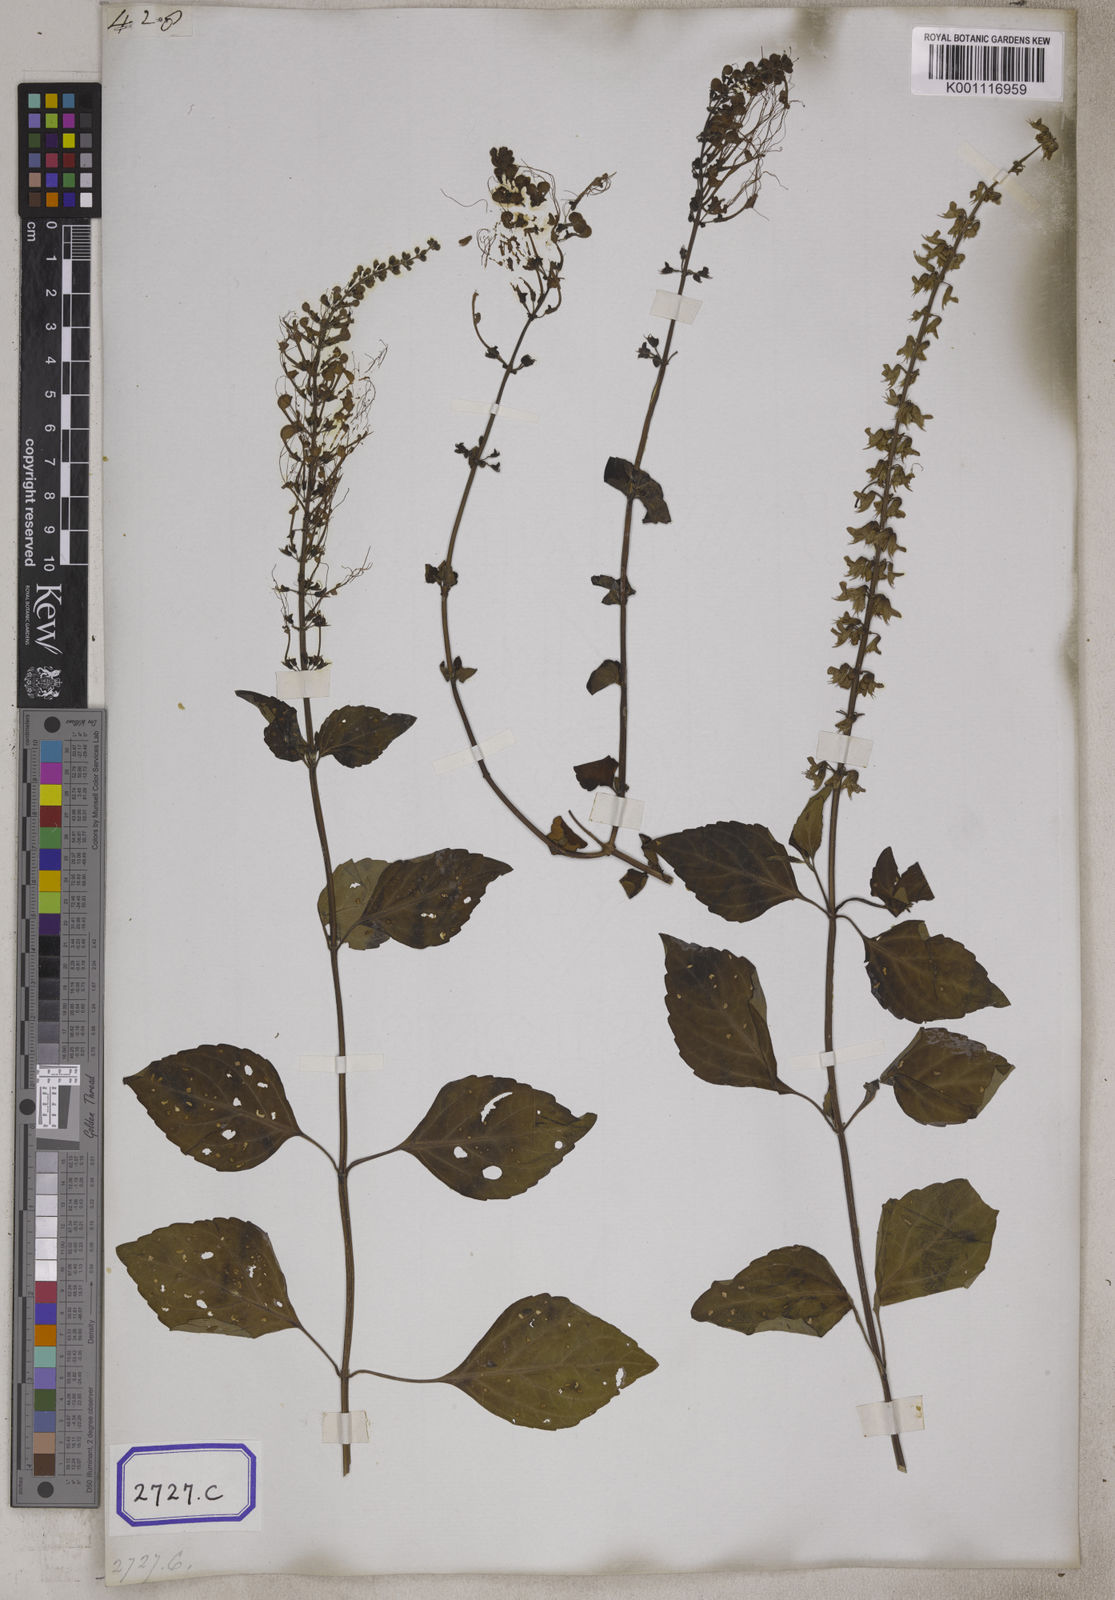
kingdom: Plantae
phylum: Tracheophyta
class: Magnoliopsida
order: Lamiales
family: Lamiaceae
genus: Orthosiphon
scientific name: Orthosiphon aristatus
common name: Whiskerplant
